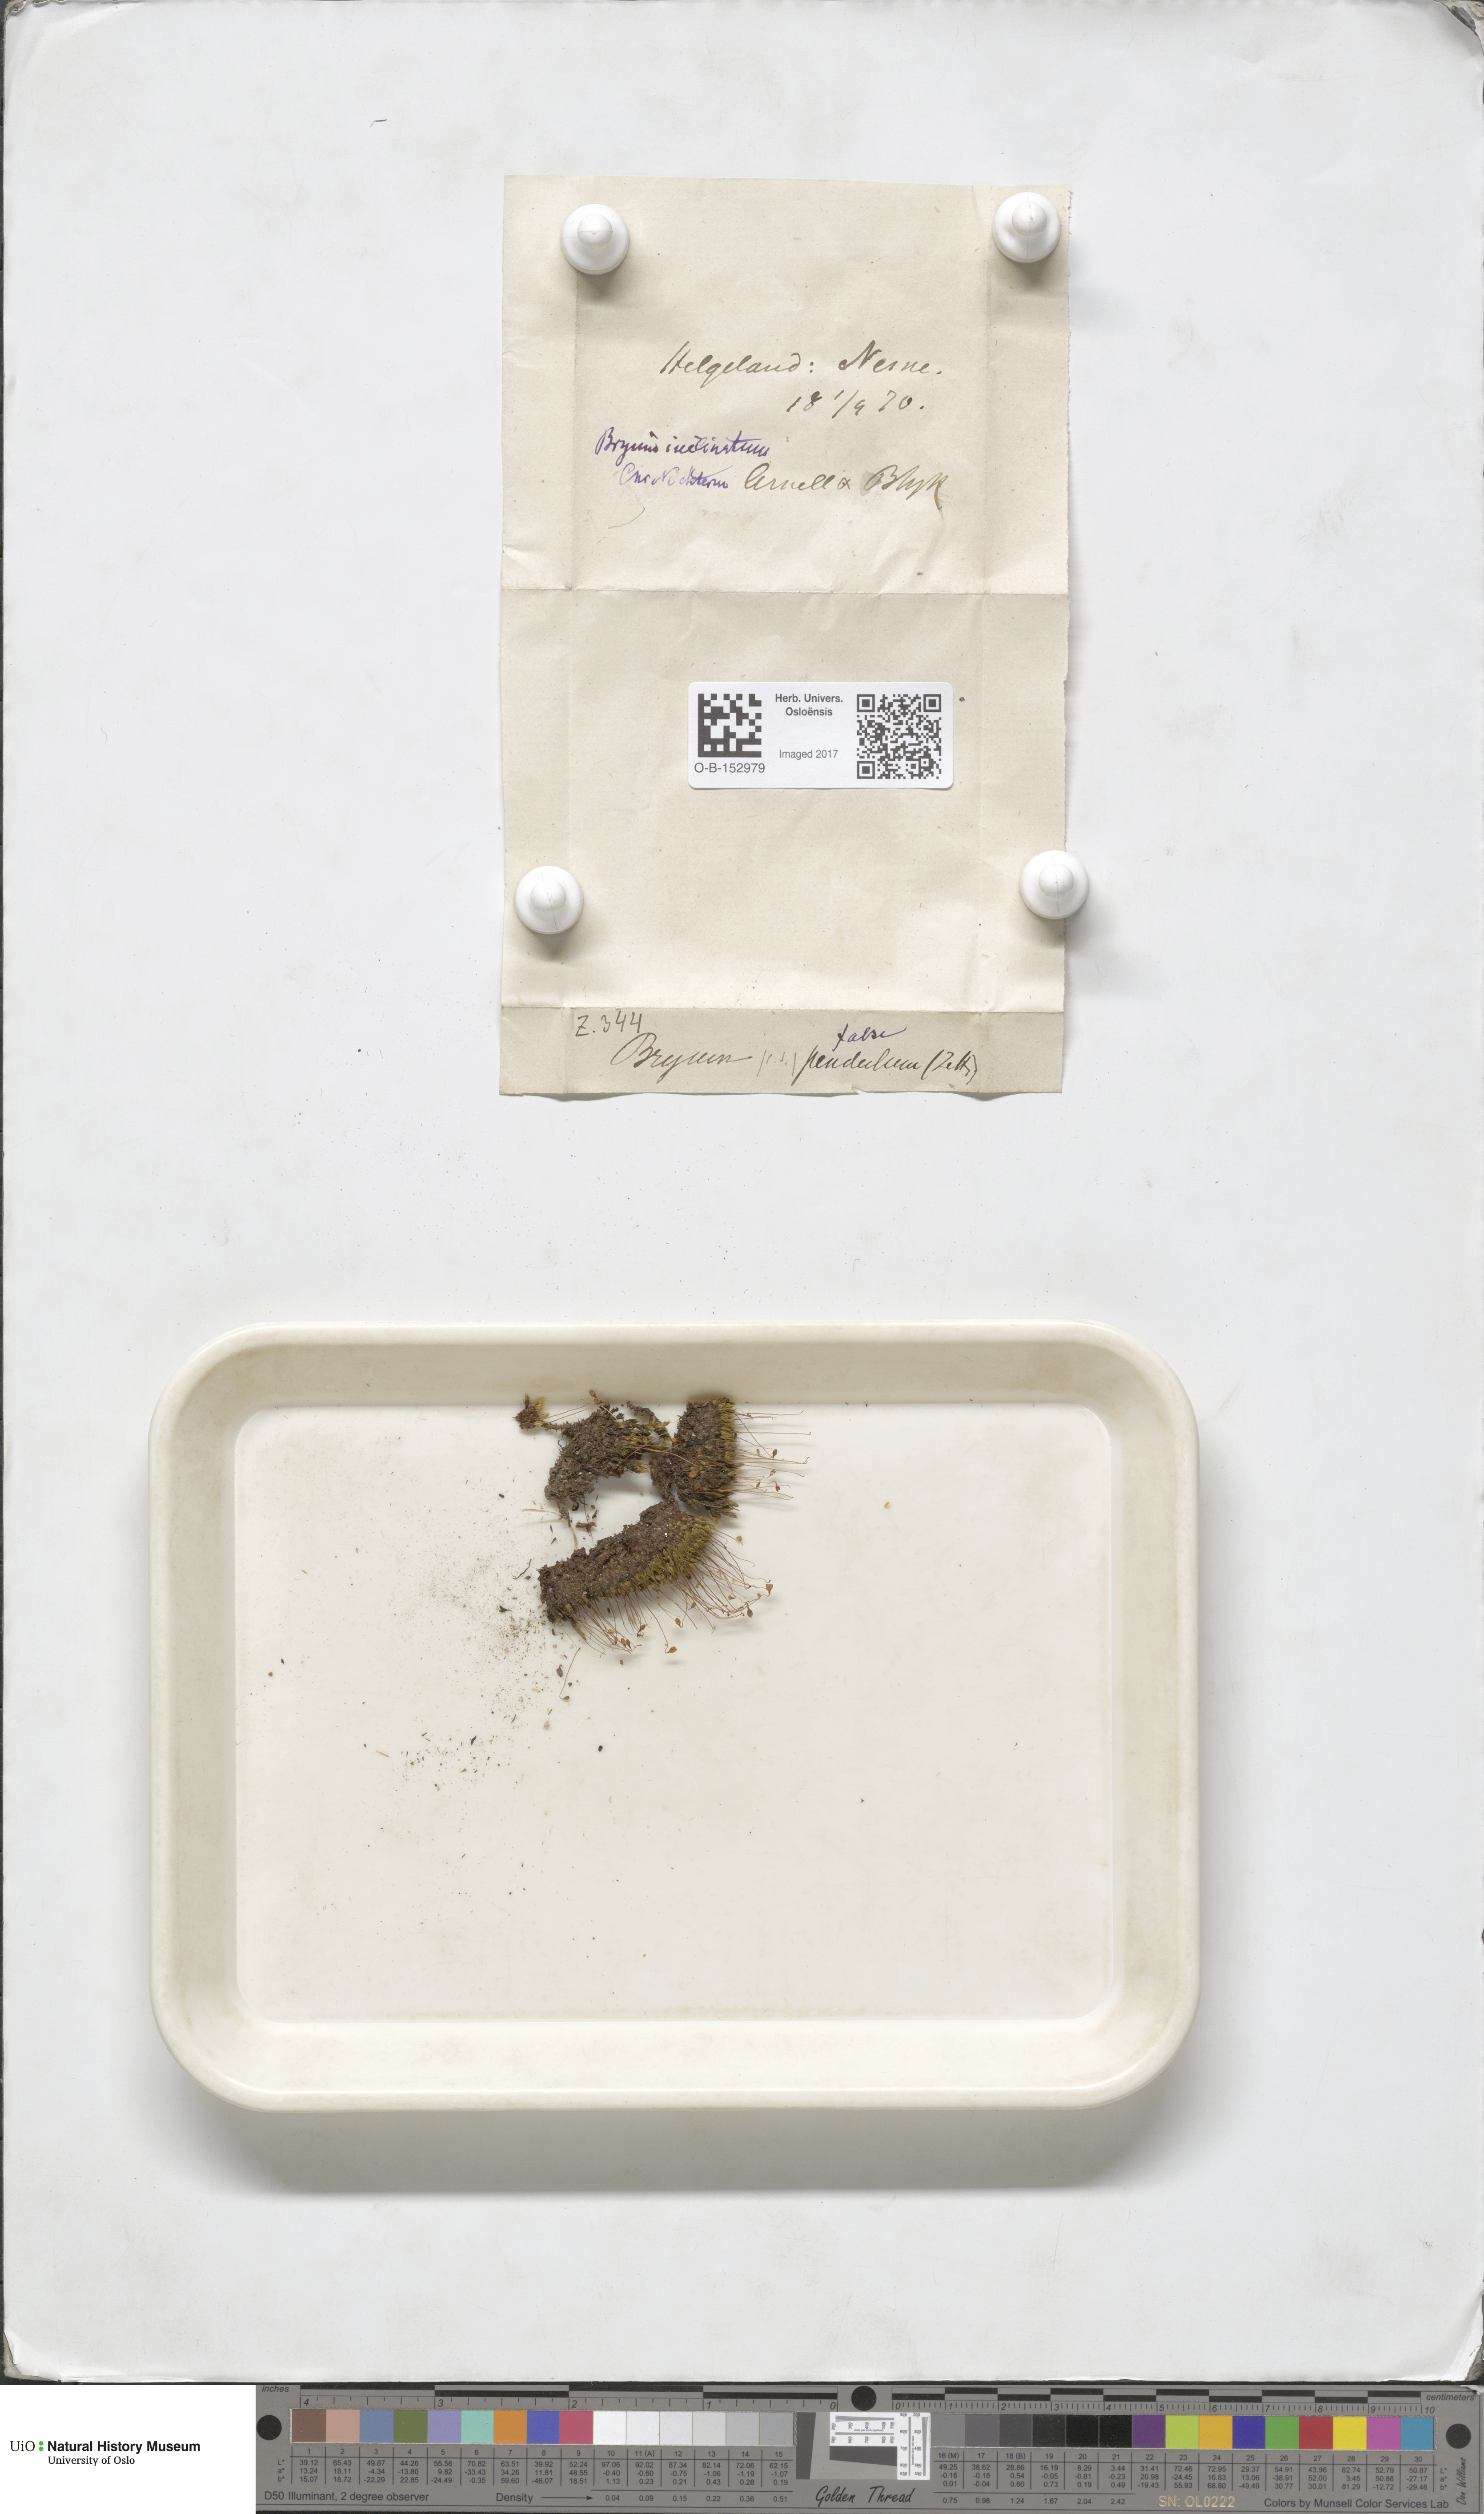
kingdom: Plantae
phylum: Bryophyta
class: Bryopsida
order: Bryales
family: Bryaceae
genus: Ptychostomum
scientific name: Ptychostomum inclinatum
